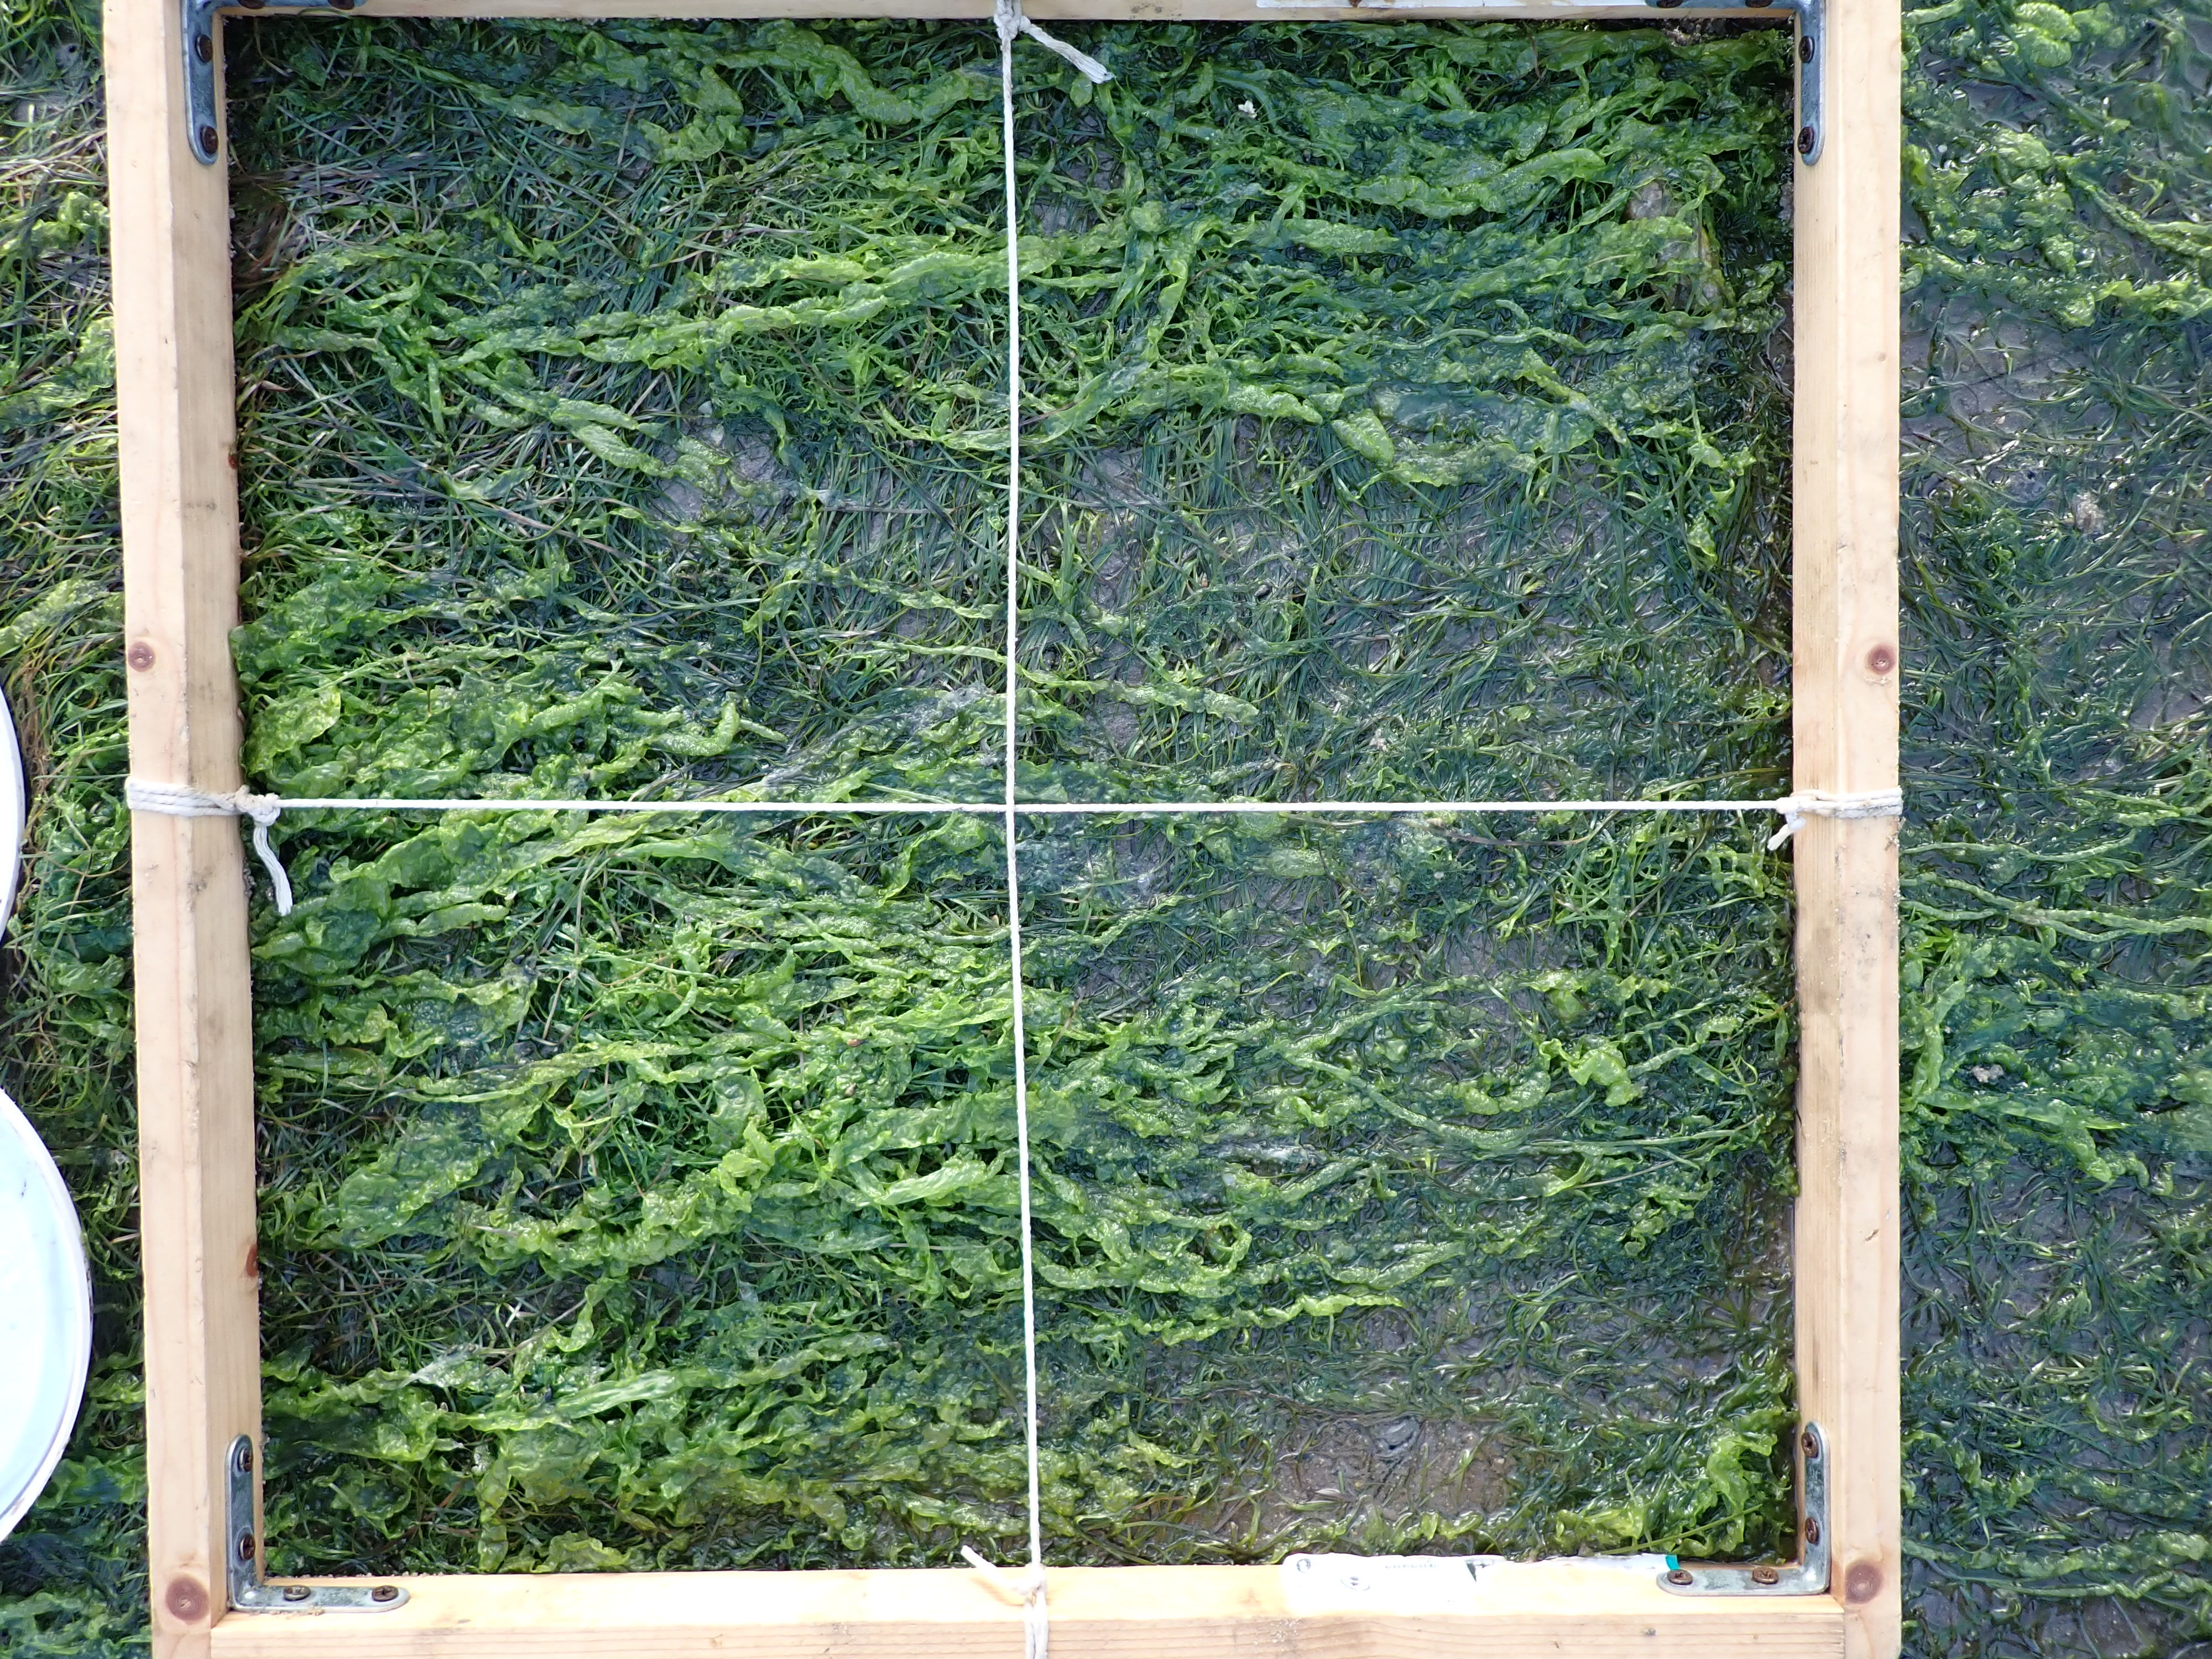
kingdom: Plantae
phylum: Tracheophyta
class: Liliopsida
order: Alismatales
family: Zosteraceae
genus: Zostera
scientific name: Zostera noltii
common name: Dwarf eelgrass
